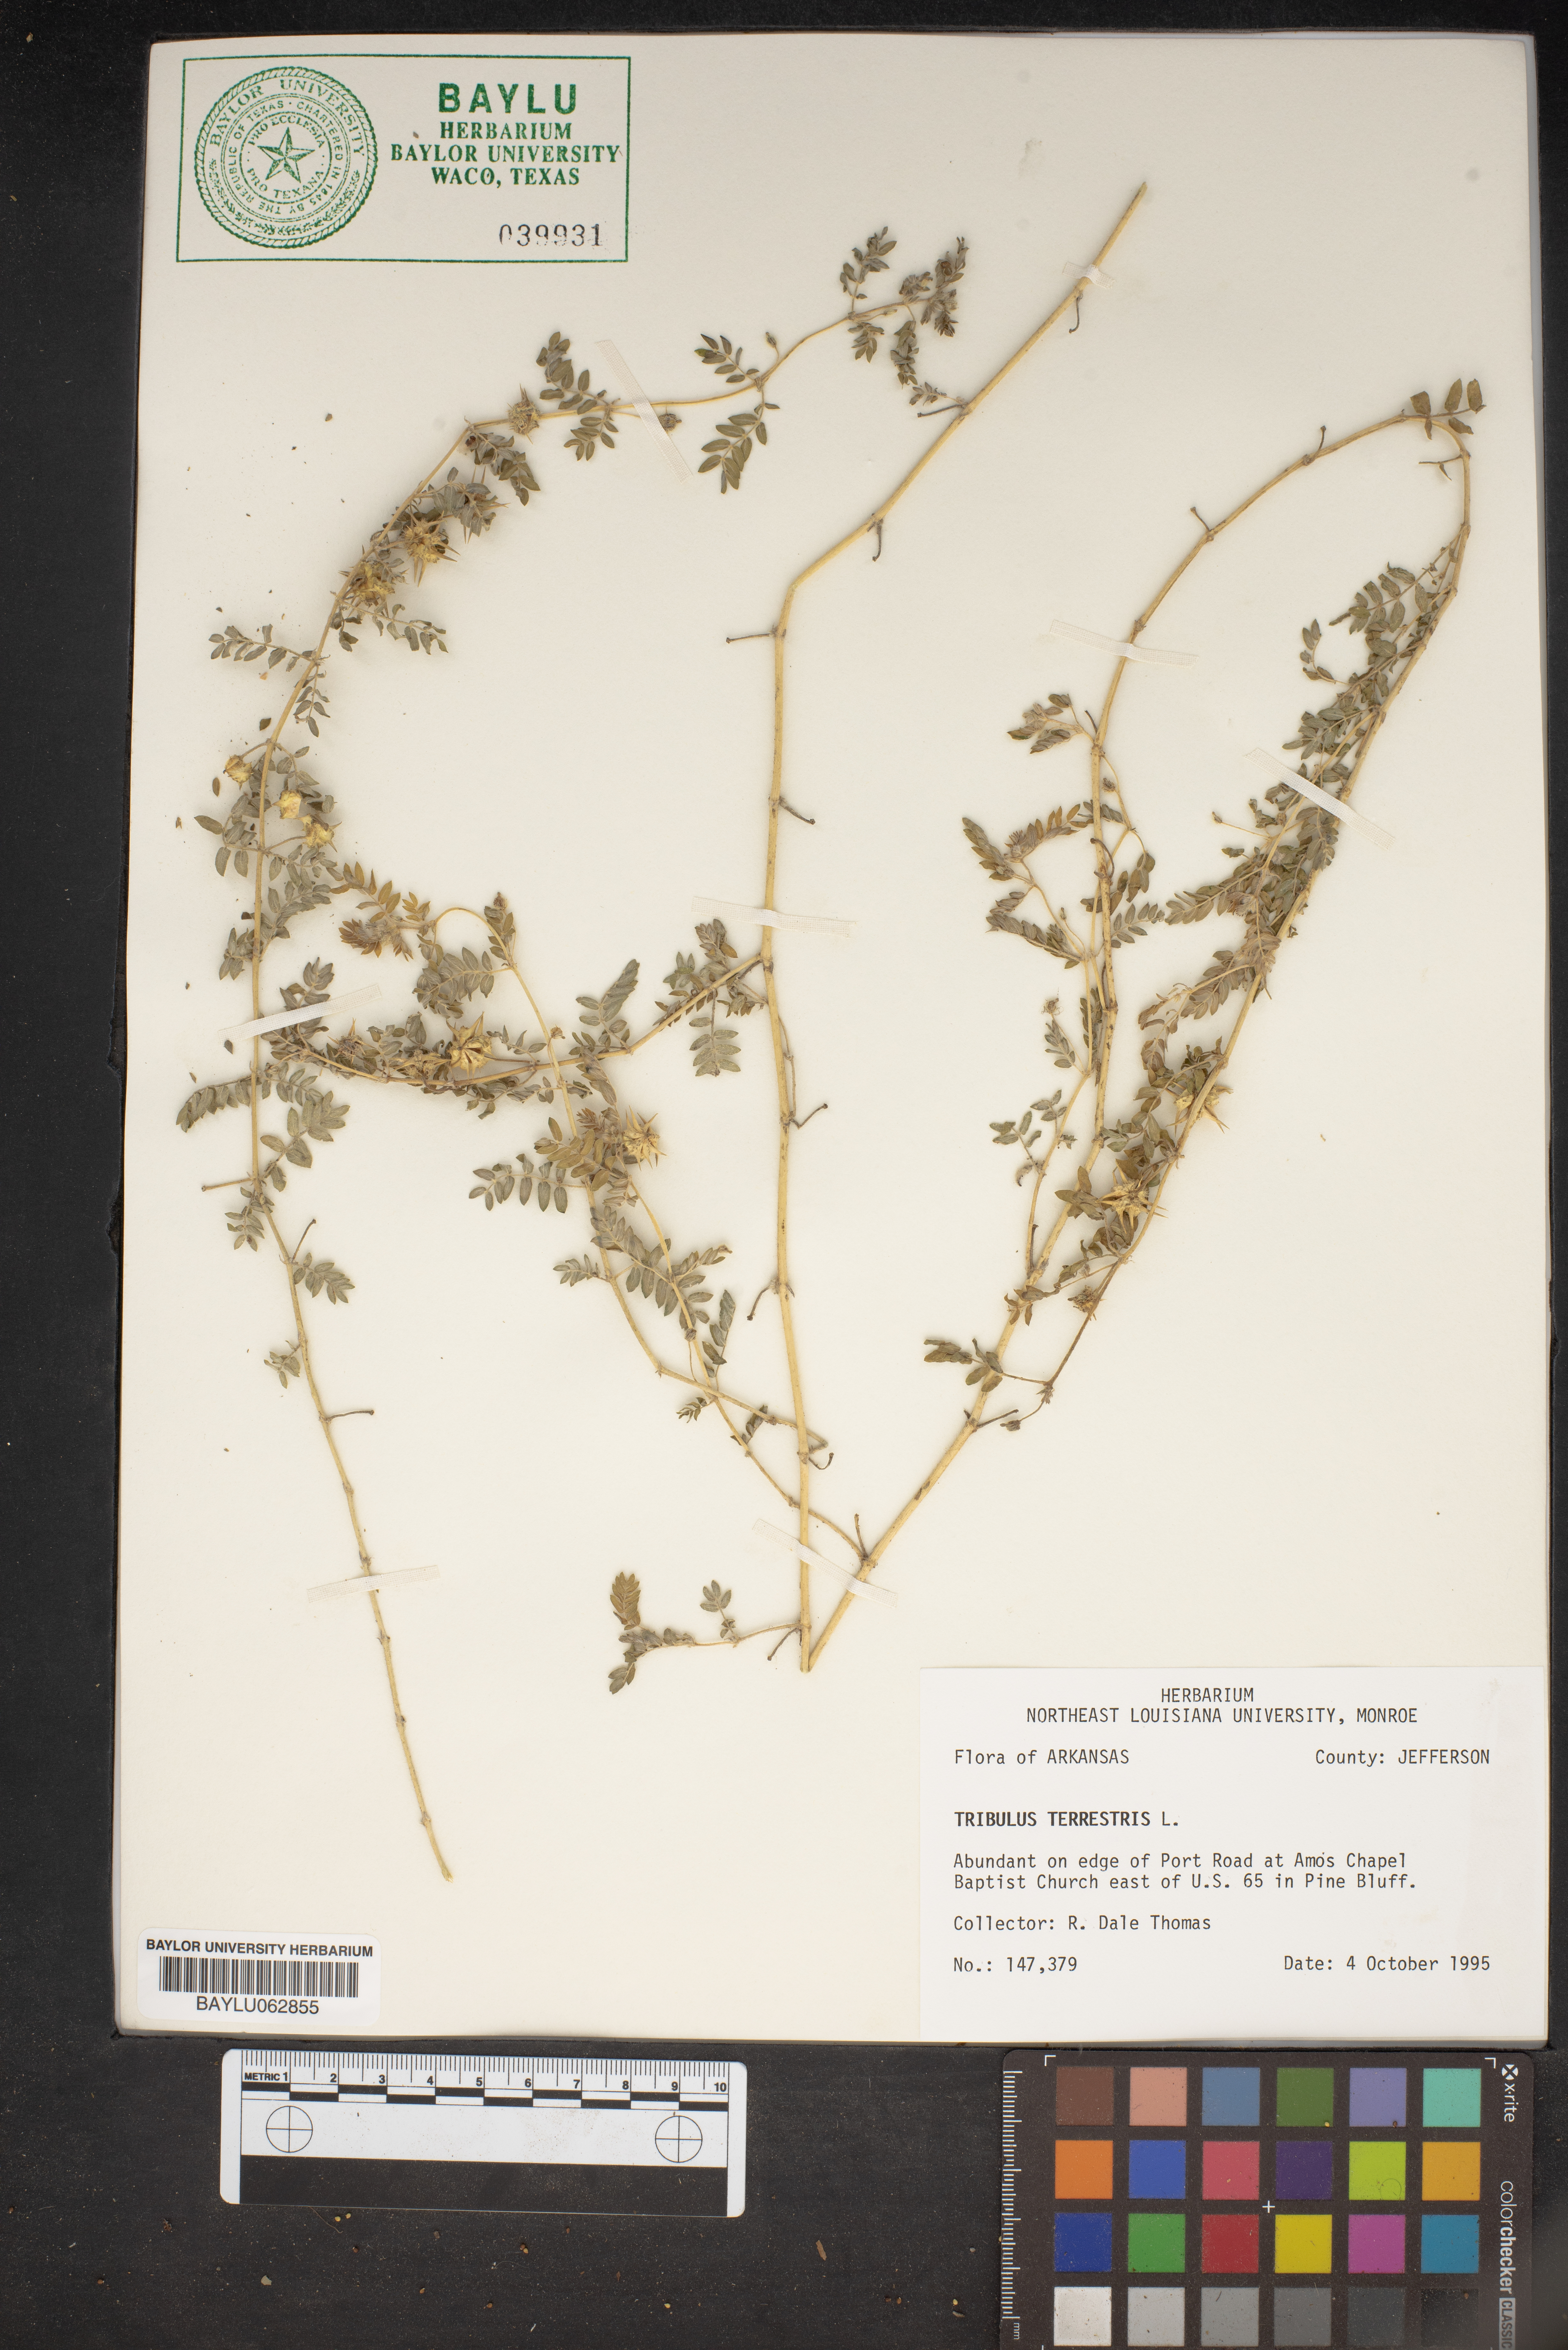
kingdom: Plantae
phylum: Tracheophyta
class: Magnoliopsida
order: Zygophyllales
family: Zygophyllaceae
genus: Tribulus
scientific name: Tribulus terrestris
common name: Puncturevine
